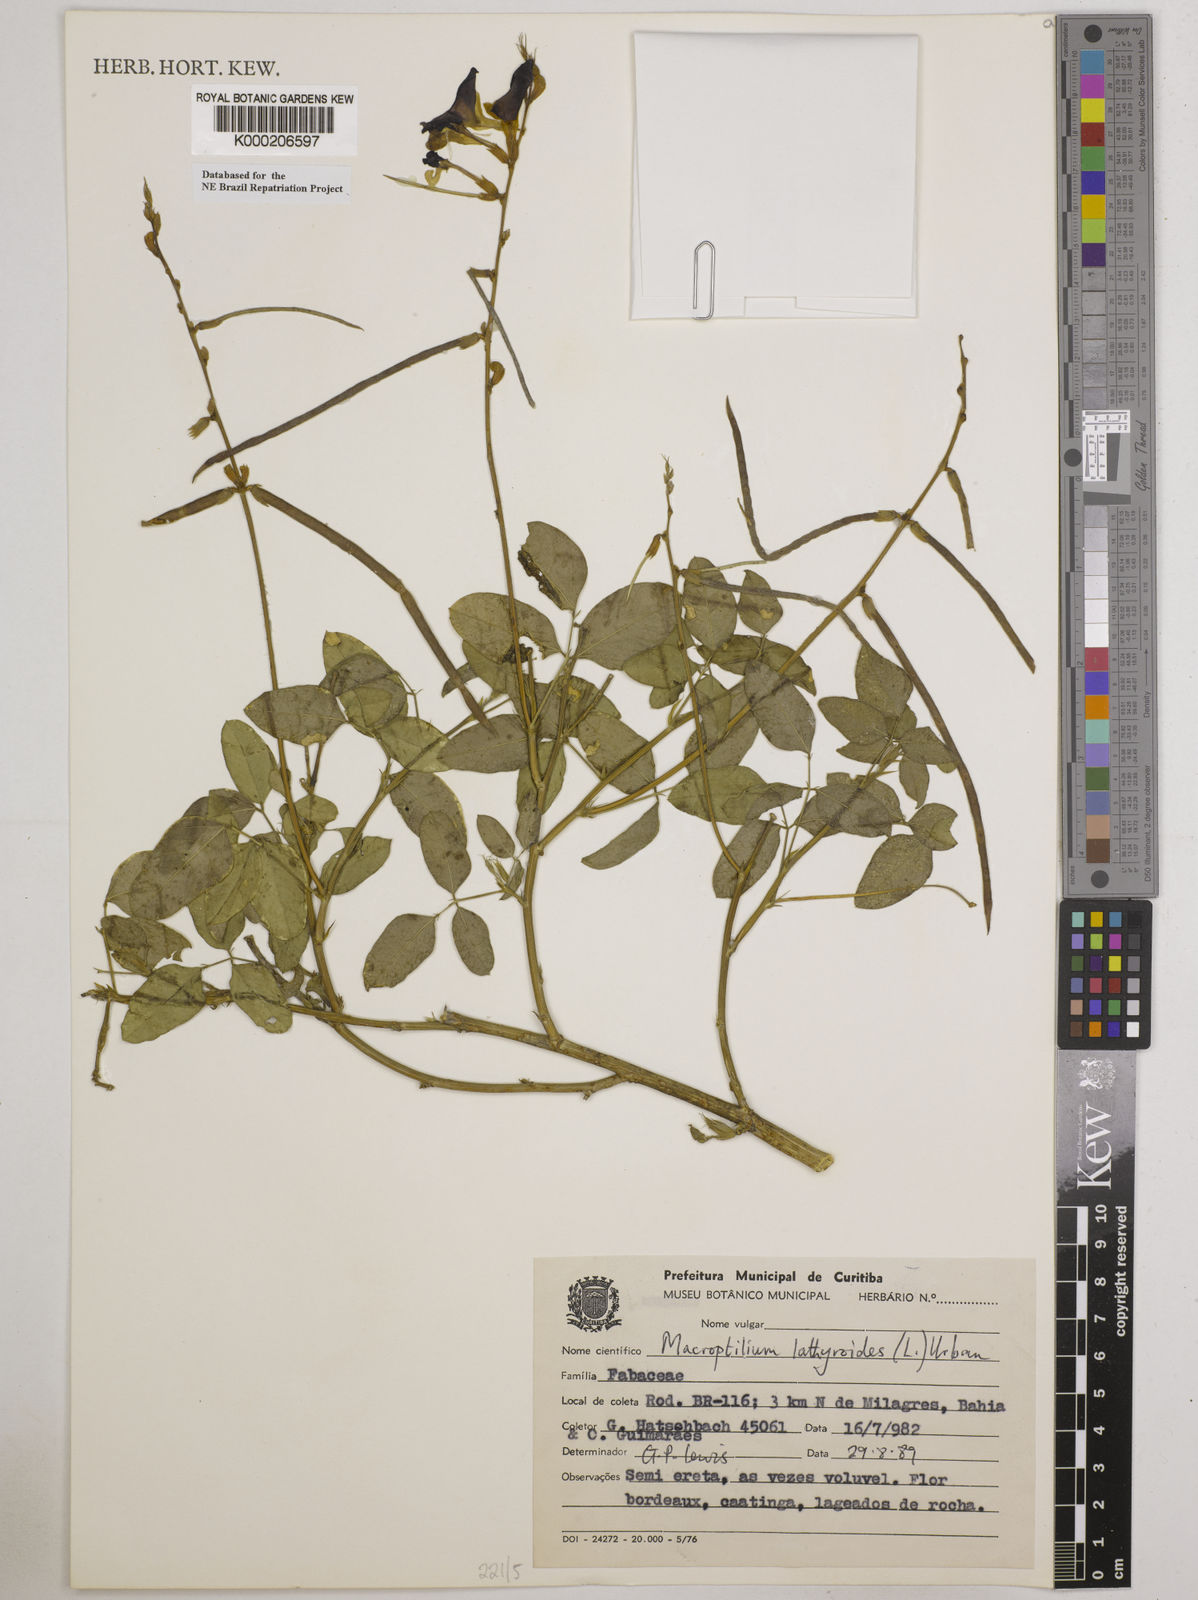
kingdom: Plantae
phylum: Tracheophyta
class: Magnoliopsida
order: Fabales
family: Fabaceae
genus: Macroptilium
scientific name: Macroptilium lathyroides
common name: Wild bushbean
